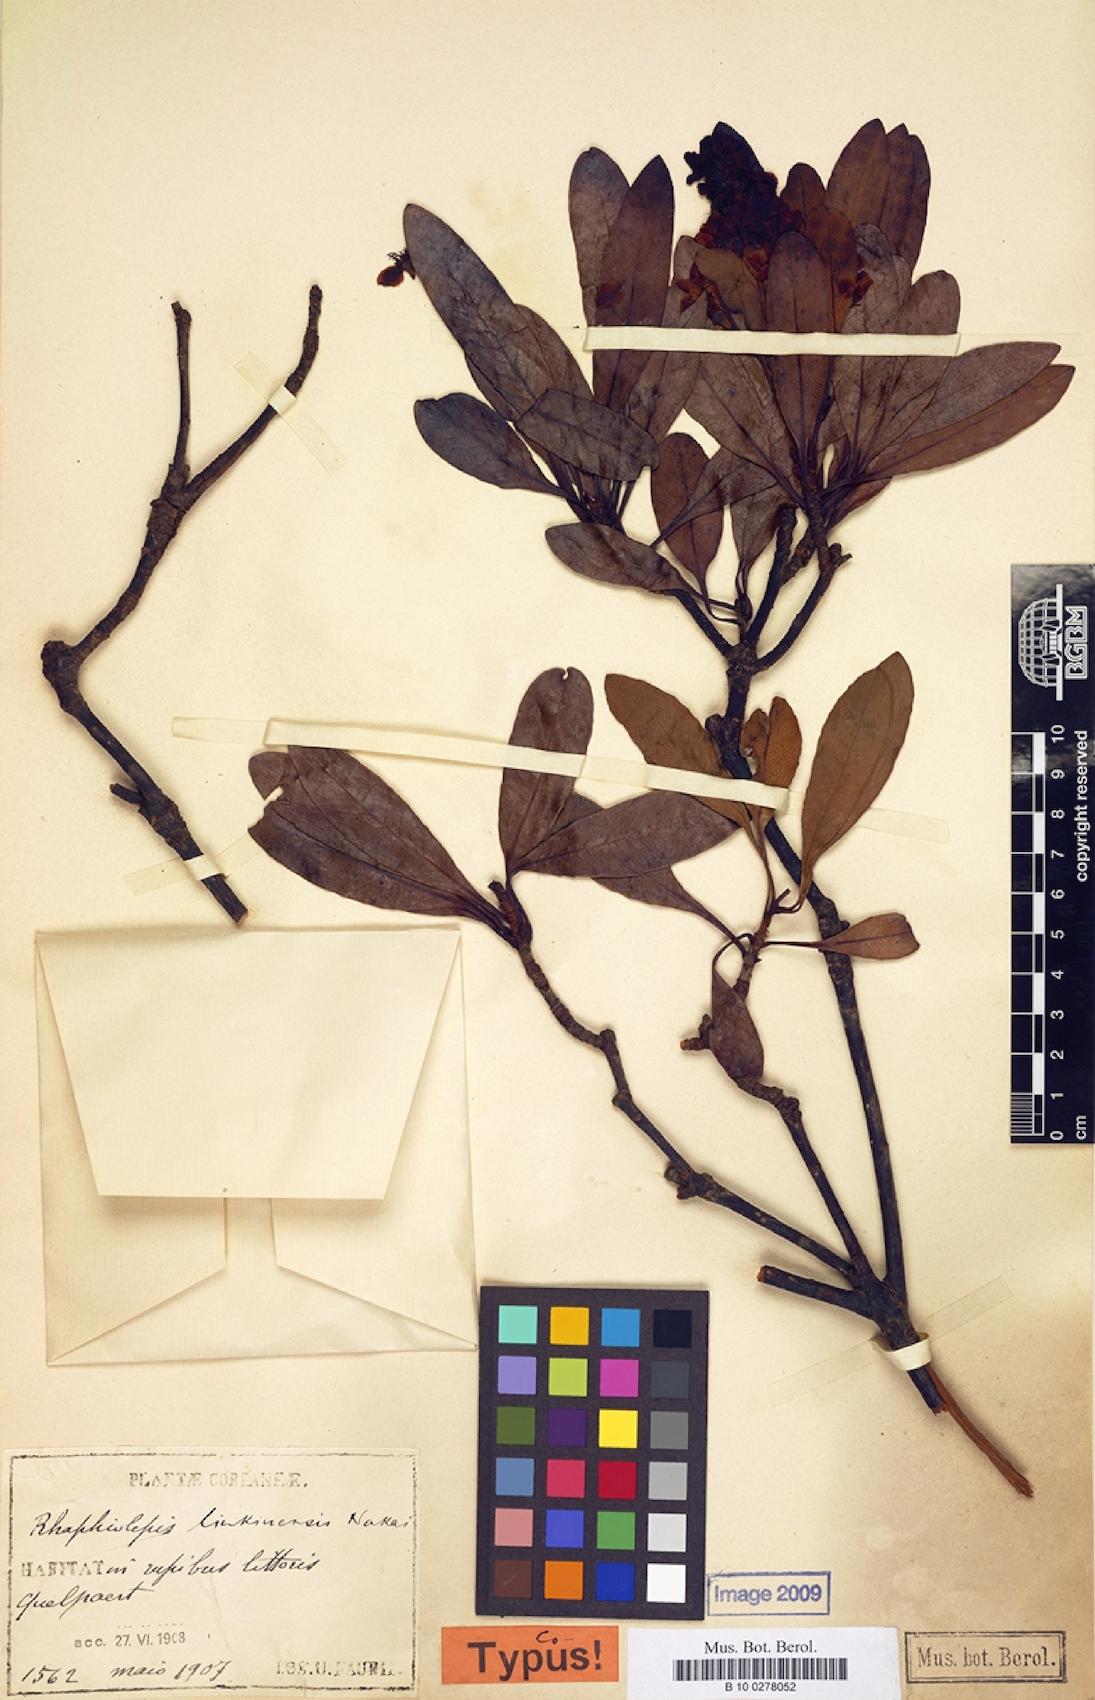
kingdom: Plantae
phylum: Tracheophyta
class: Magnoliopsida
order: Rosales
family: Rosaceae
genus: Rhaphiolepis
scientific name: Rhaphiolepis umbellata
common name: Yedda-hawthorn
